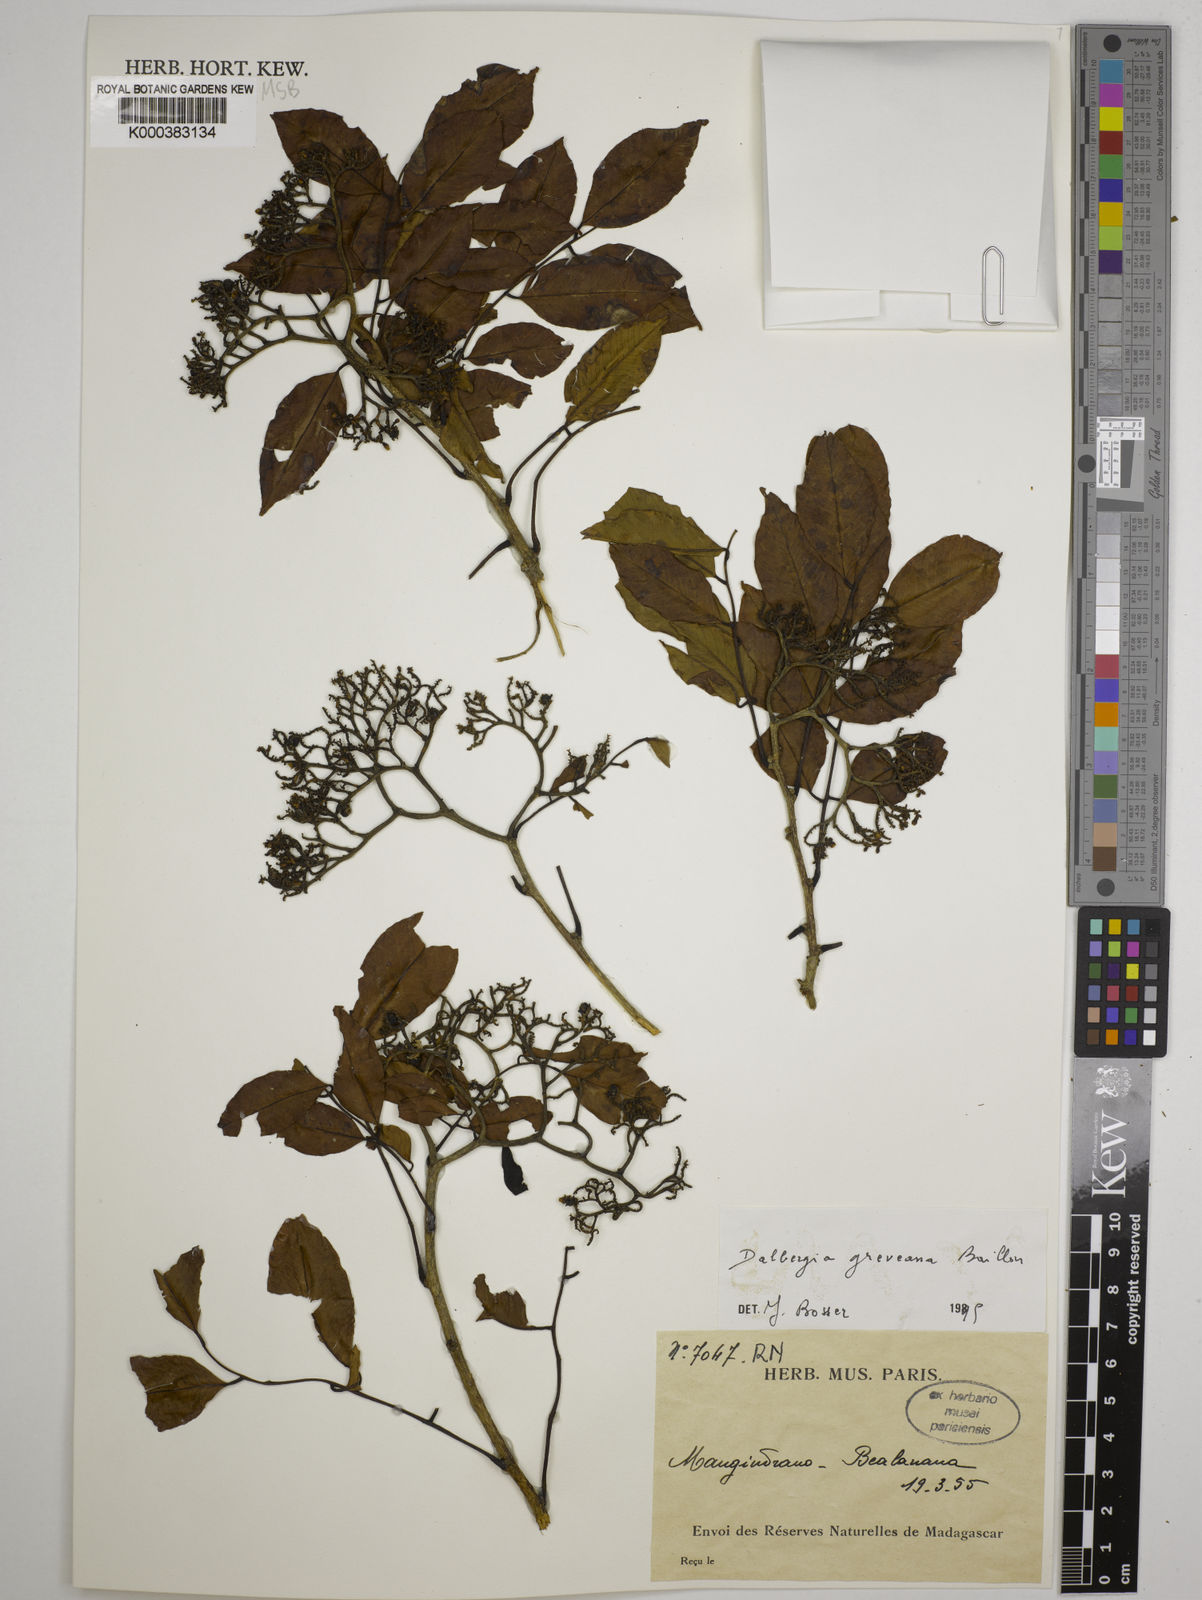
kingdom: Plantae
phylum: Tracheophyta
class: Magnoliopsida
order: Fabales
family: Fabaceae
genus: Dalbergia
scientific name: Dalbergia greveana
